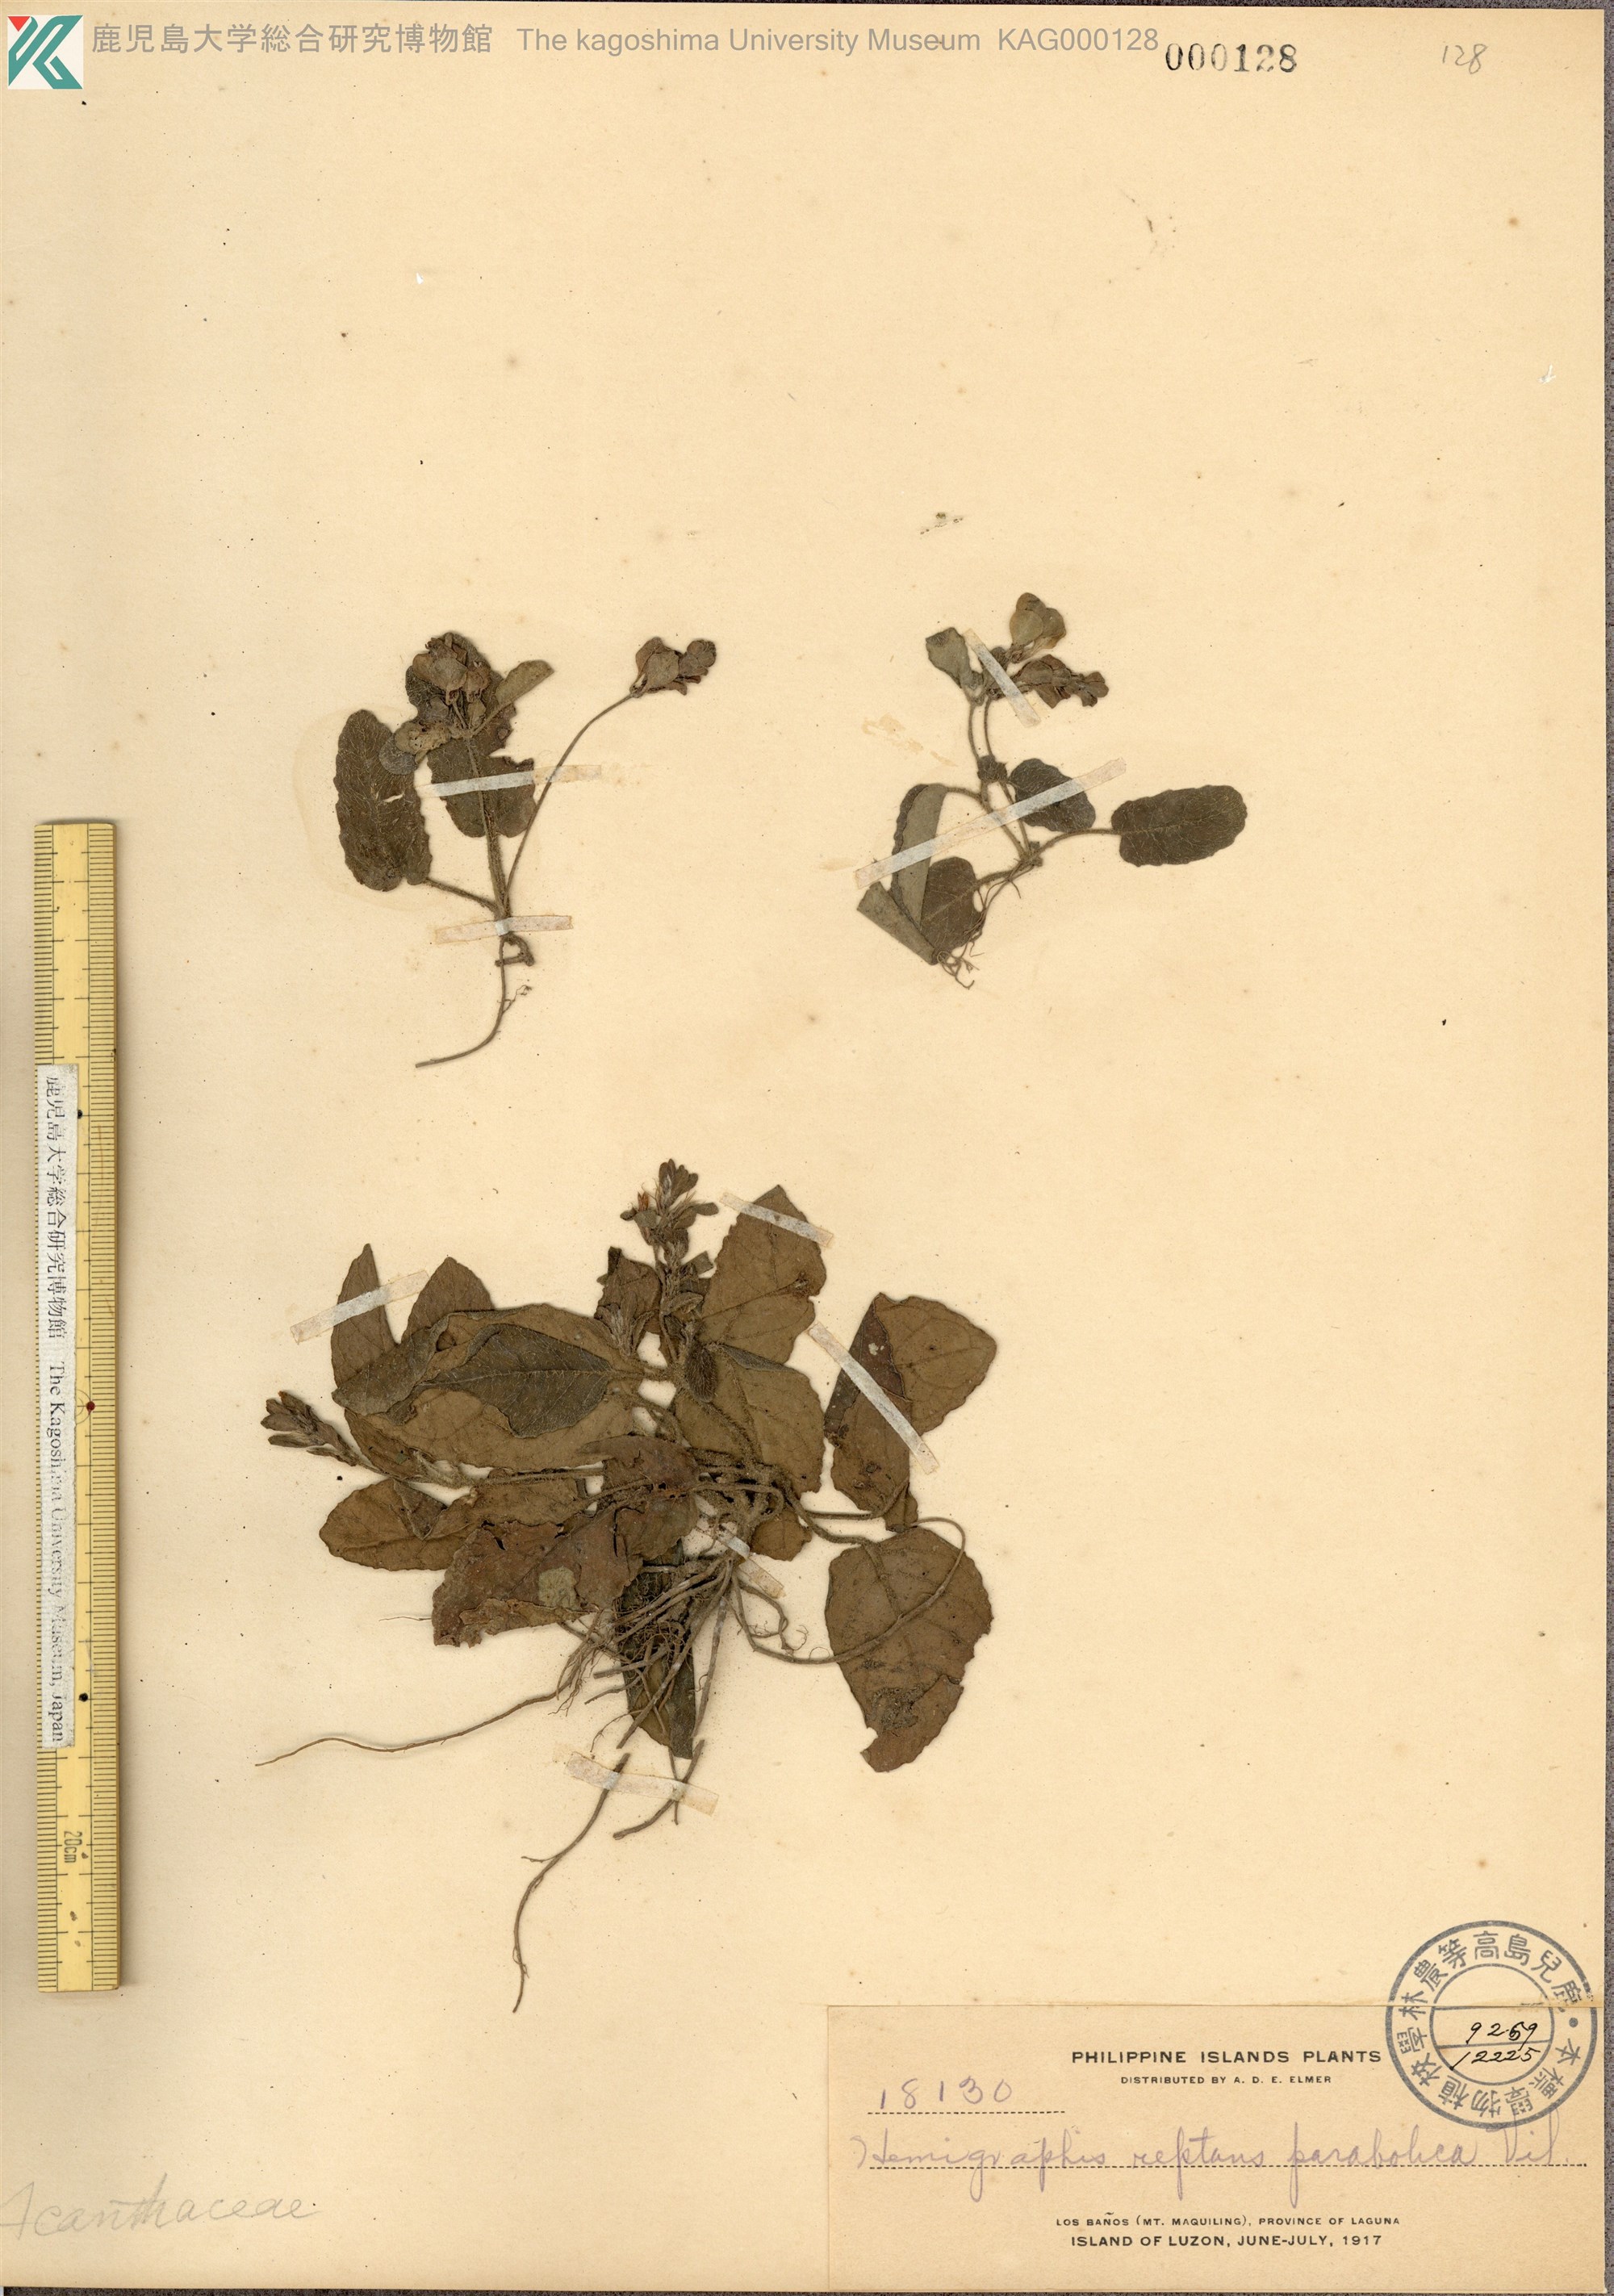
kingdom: Plantae
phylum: Tracheophyta
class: Magnoliopsida
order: Lamiales
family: Acanthaceae
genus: Hemigraphis
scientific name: Hemigraphis reptans
